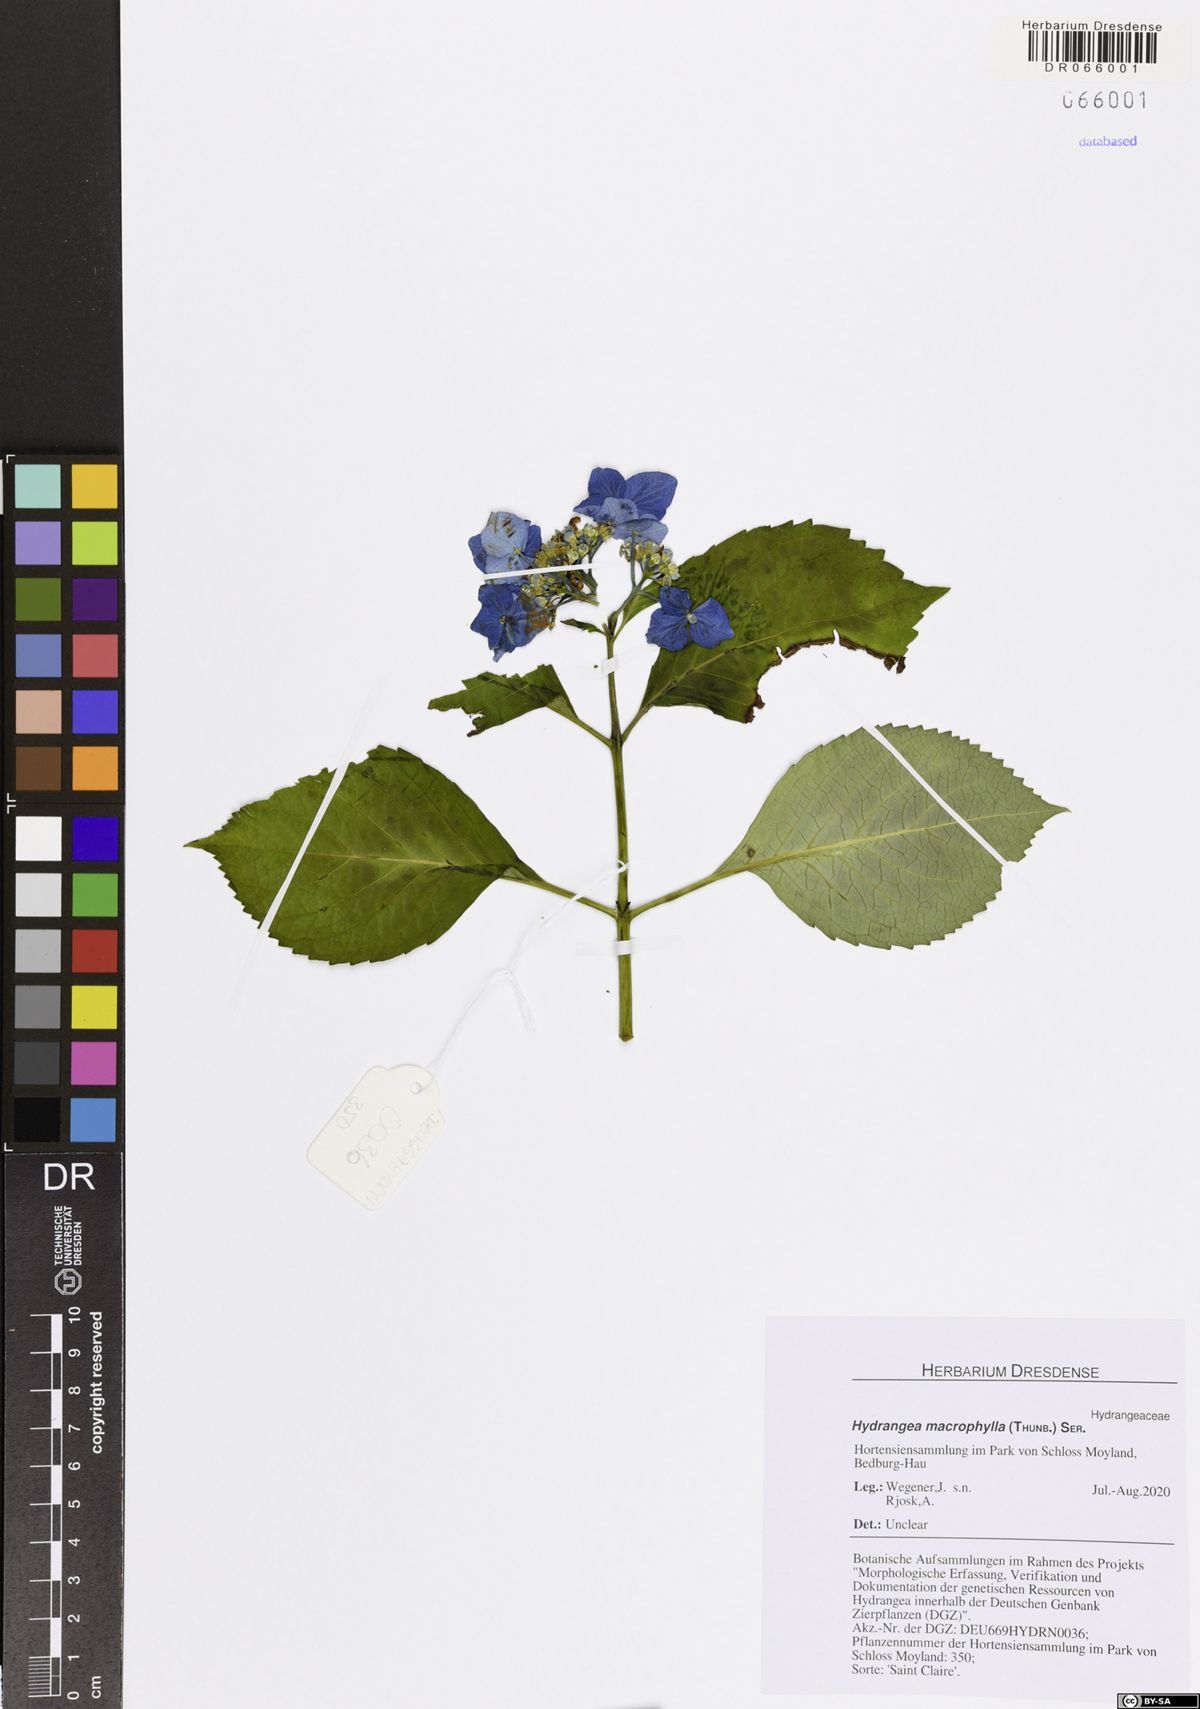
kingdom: Plantae
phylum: Tracheophyta
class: Magnoliopsida
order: Cornales
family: Hydrangeaceae
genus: Hydrangea
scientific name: Hydrangea macrophylla
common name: Hydrangea
